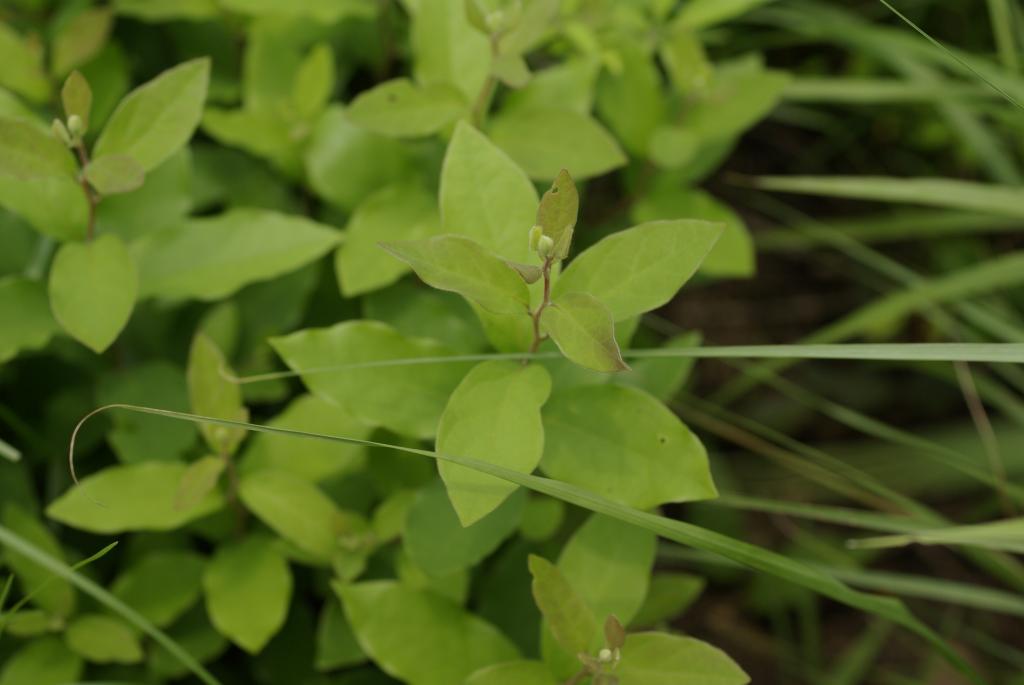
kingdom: Plantae
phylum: Tracheophyta
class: Magnoliopsida
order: Laurales
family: Lauraceae
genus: Lindera
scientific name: Lindera glauca
